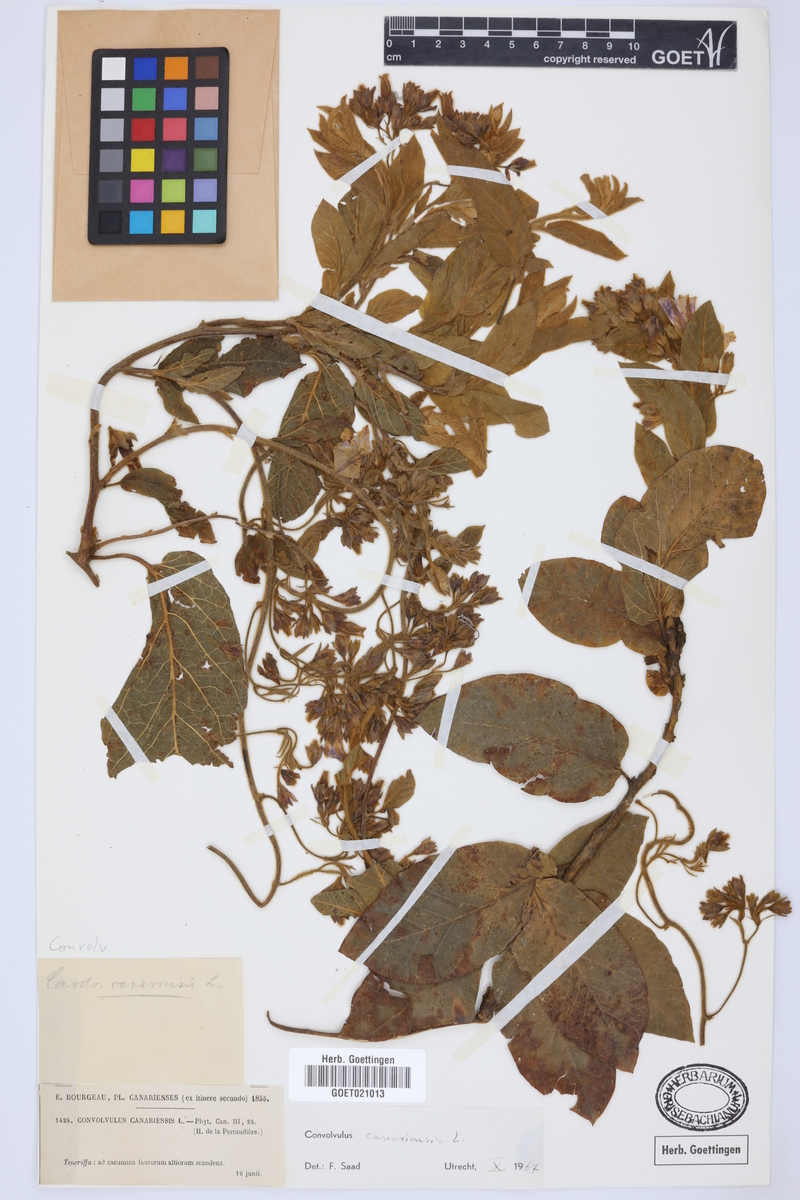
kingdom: Plantae
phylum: Tracheophyta
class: Magnoliopsida
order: Solanales
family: Convolvulaceae
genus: Convolvulus
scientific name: Convolvulus canariensis
